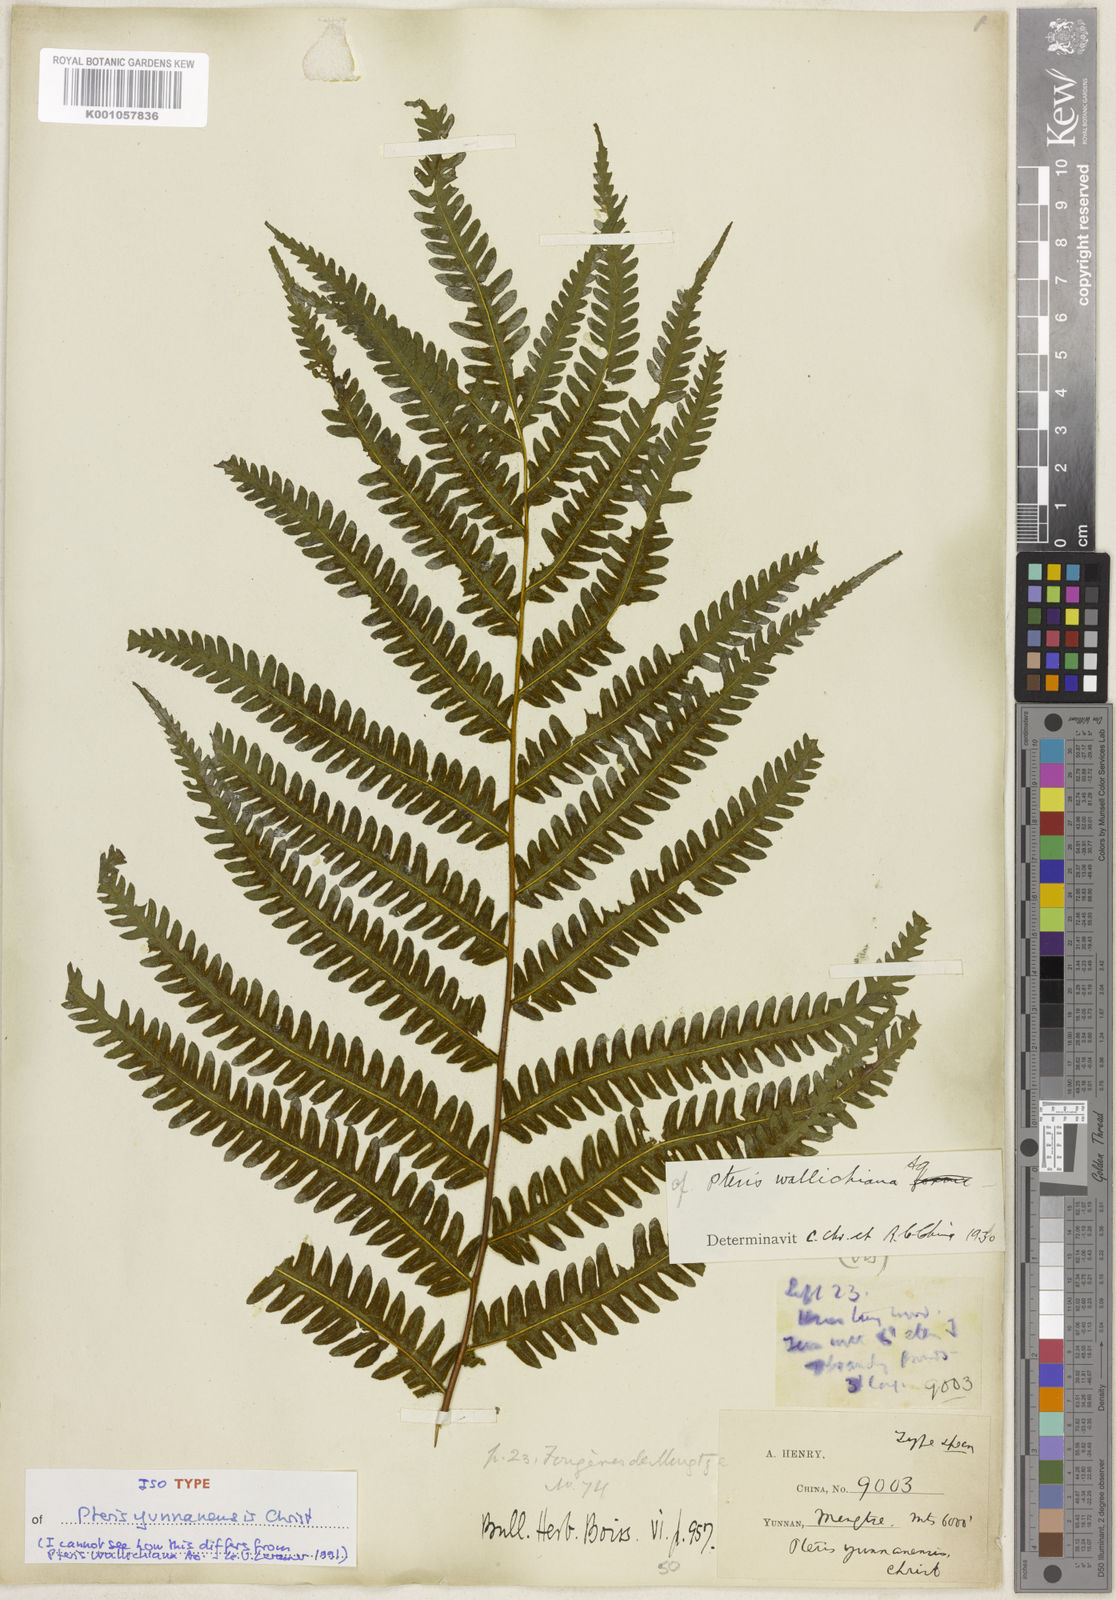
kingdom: Plantae
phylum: Tracheophyta
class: Polypodiopsida
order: Polypodiales
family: Pteridaceae
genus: Pteris
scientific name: Pteris longipes
